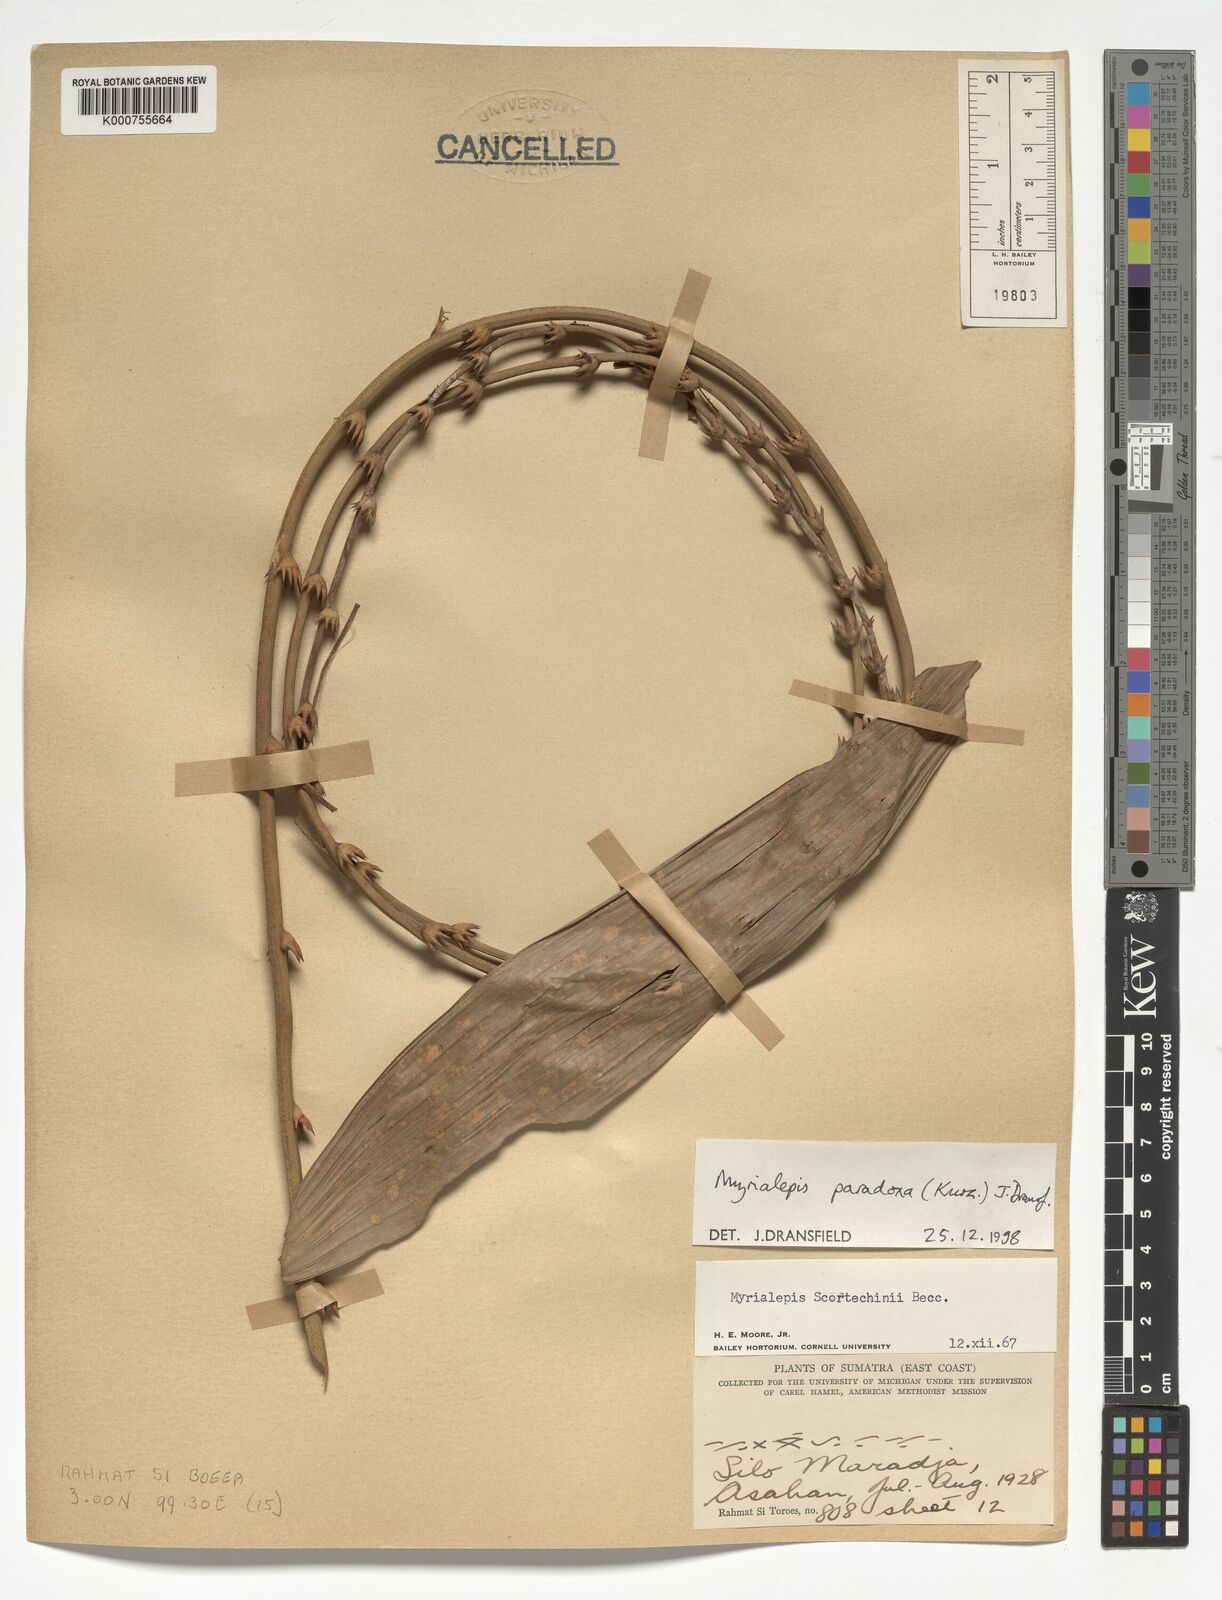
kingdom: Plantae
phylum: Tracheophyta
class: Liliopsida
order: Arecales
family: Arecaceae
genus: Myrialepis
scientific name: Myrialepis paradoxa
